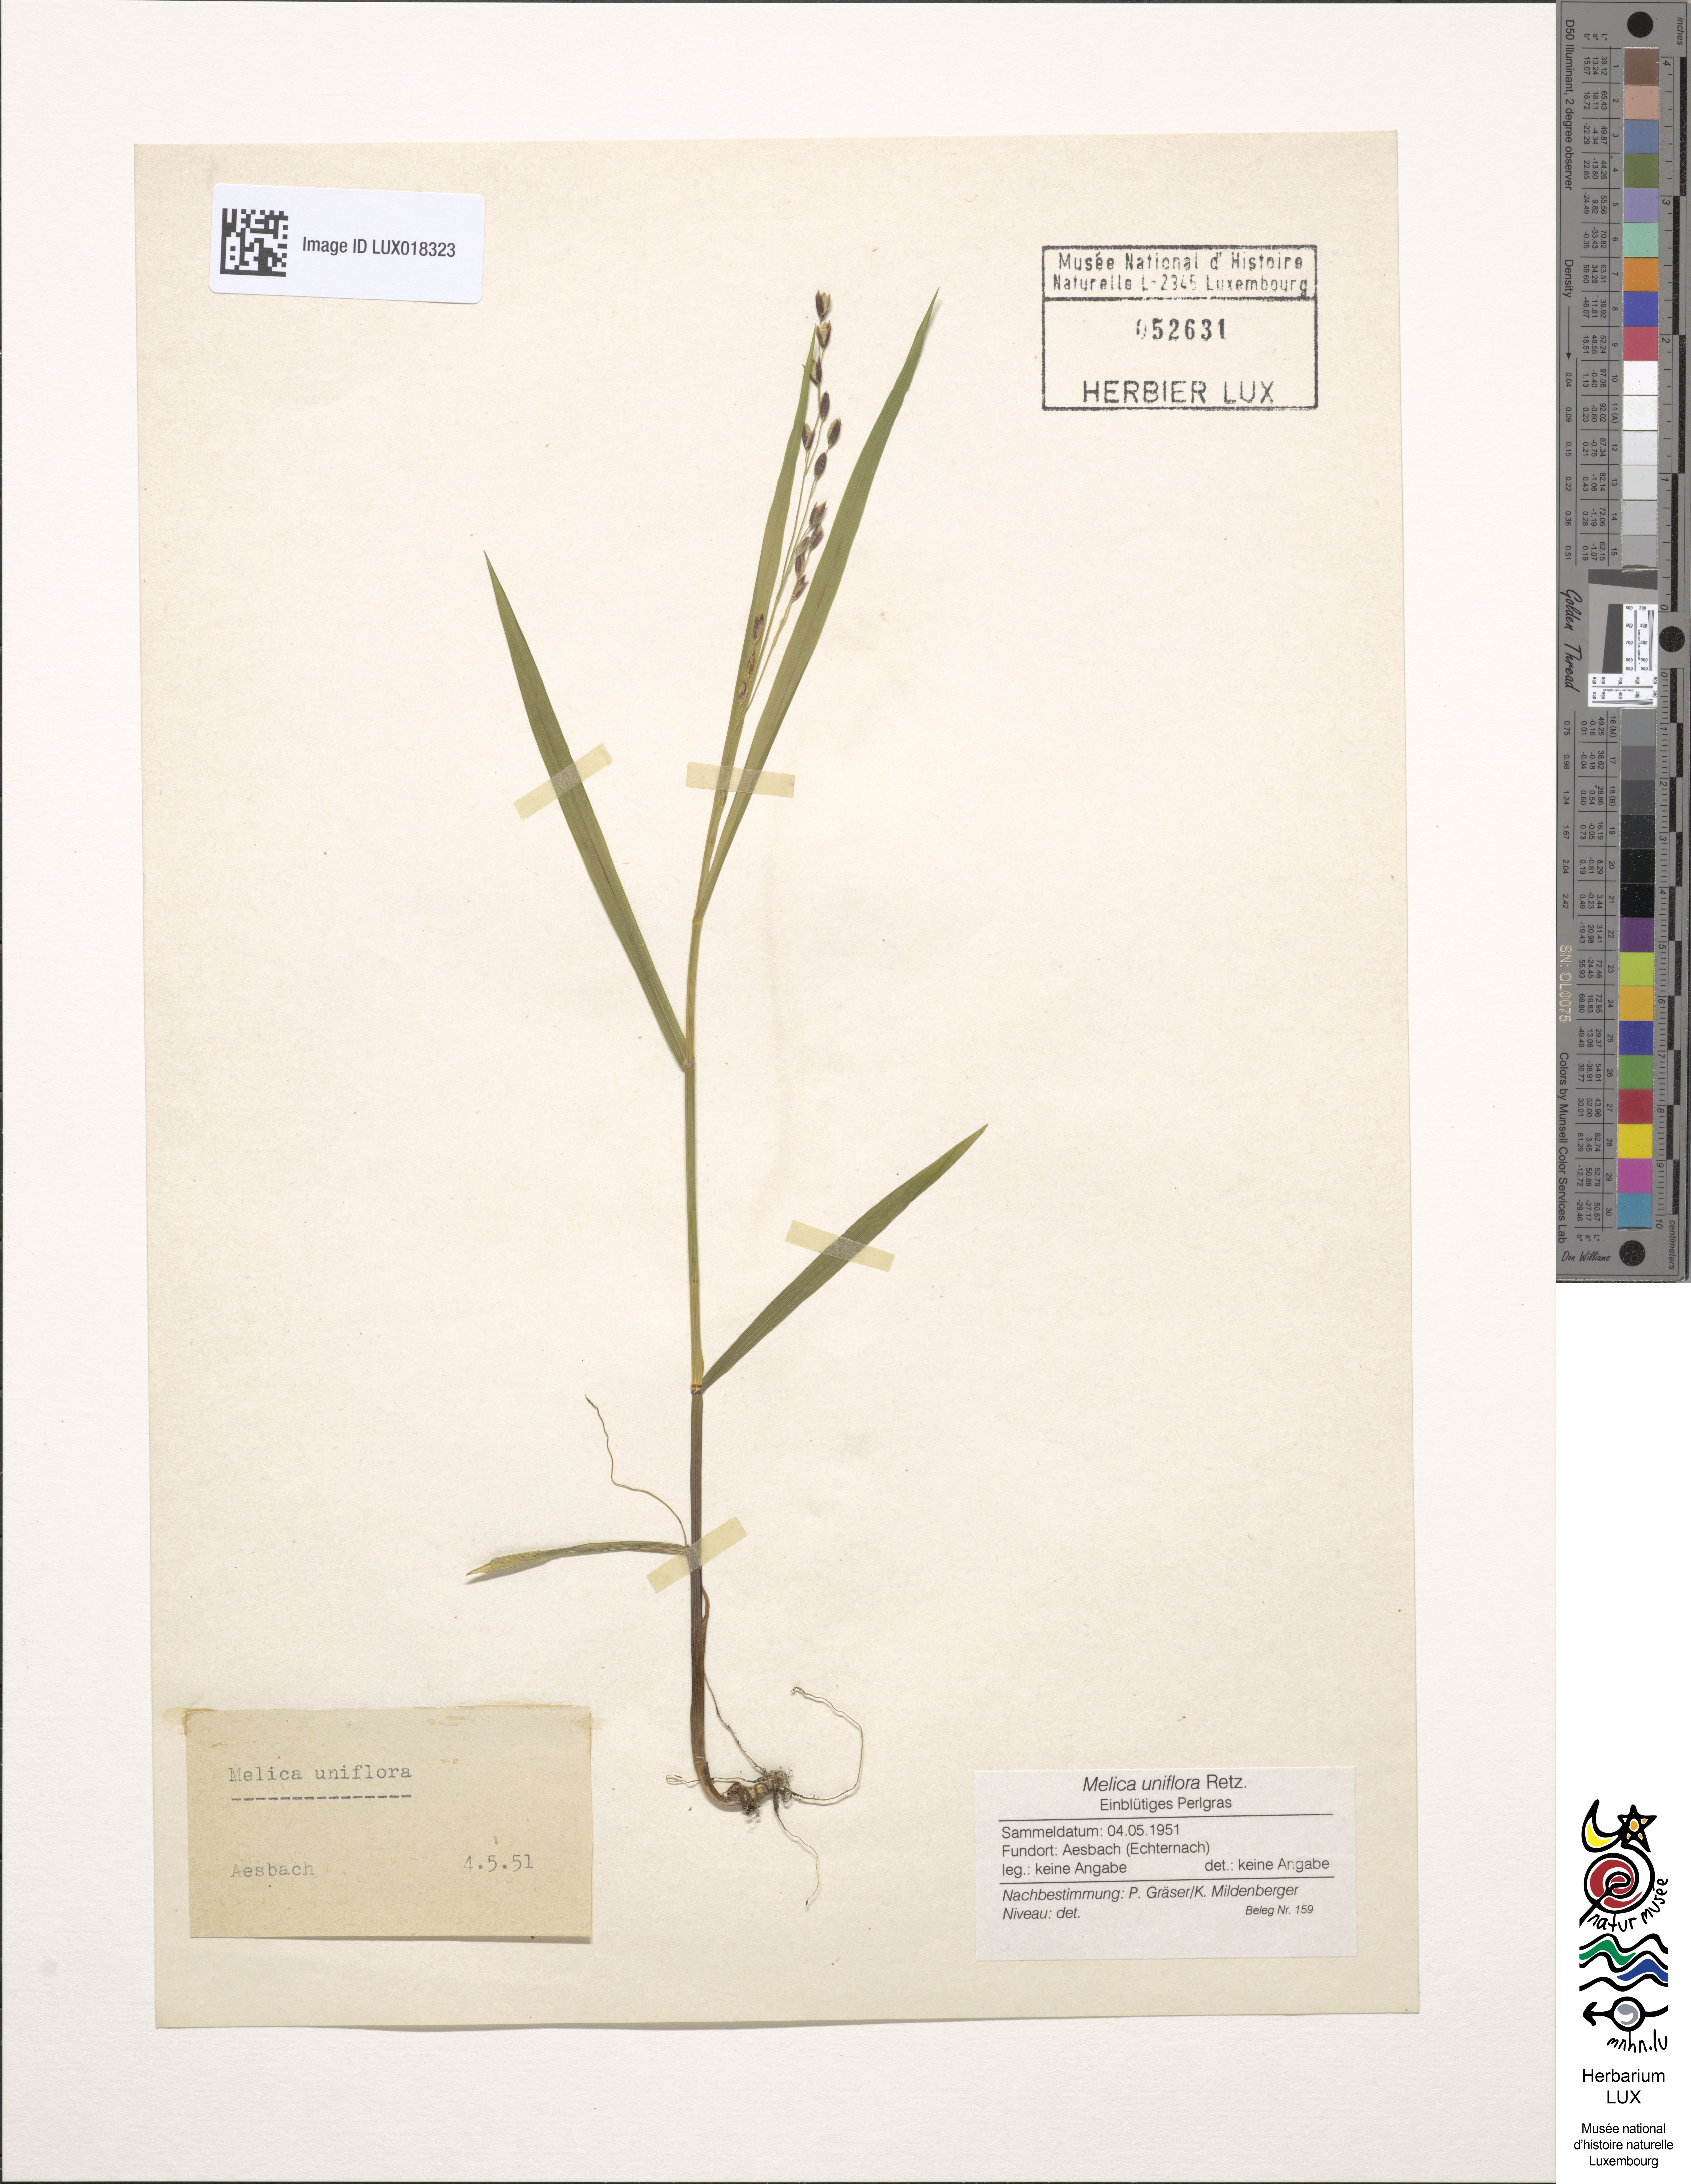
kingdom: Plantae
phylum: Tracheophyta
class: Liliopsida
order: Poales
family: Poaceae
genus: Melica
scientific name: Melica uniflora
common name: Wood melick
